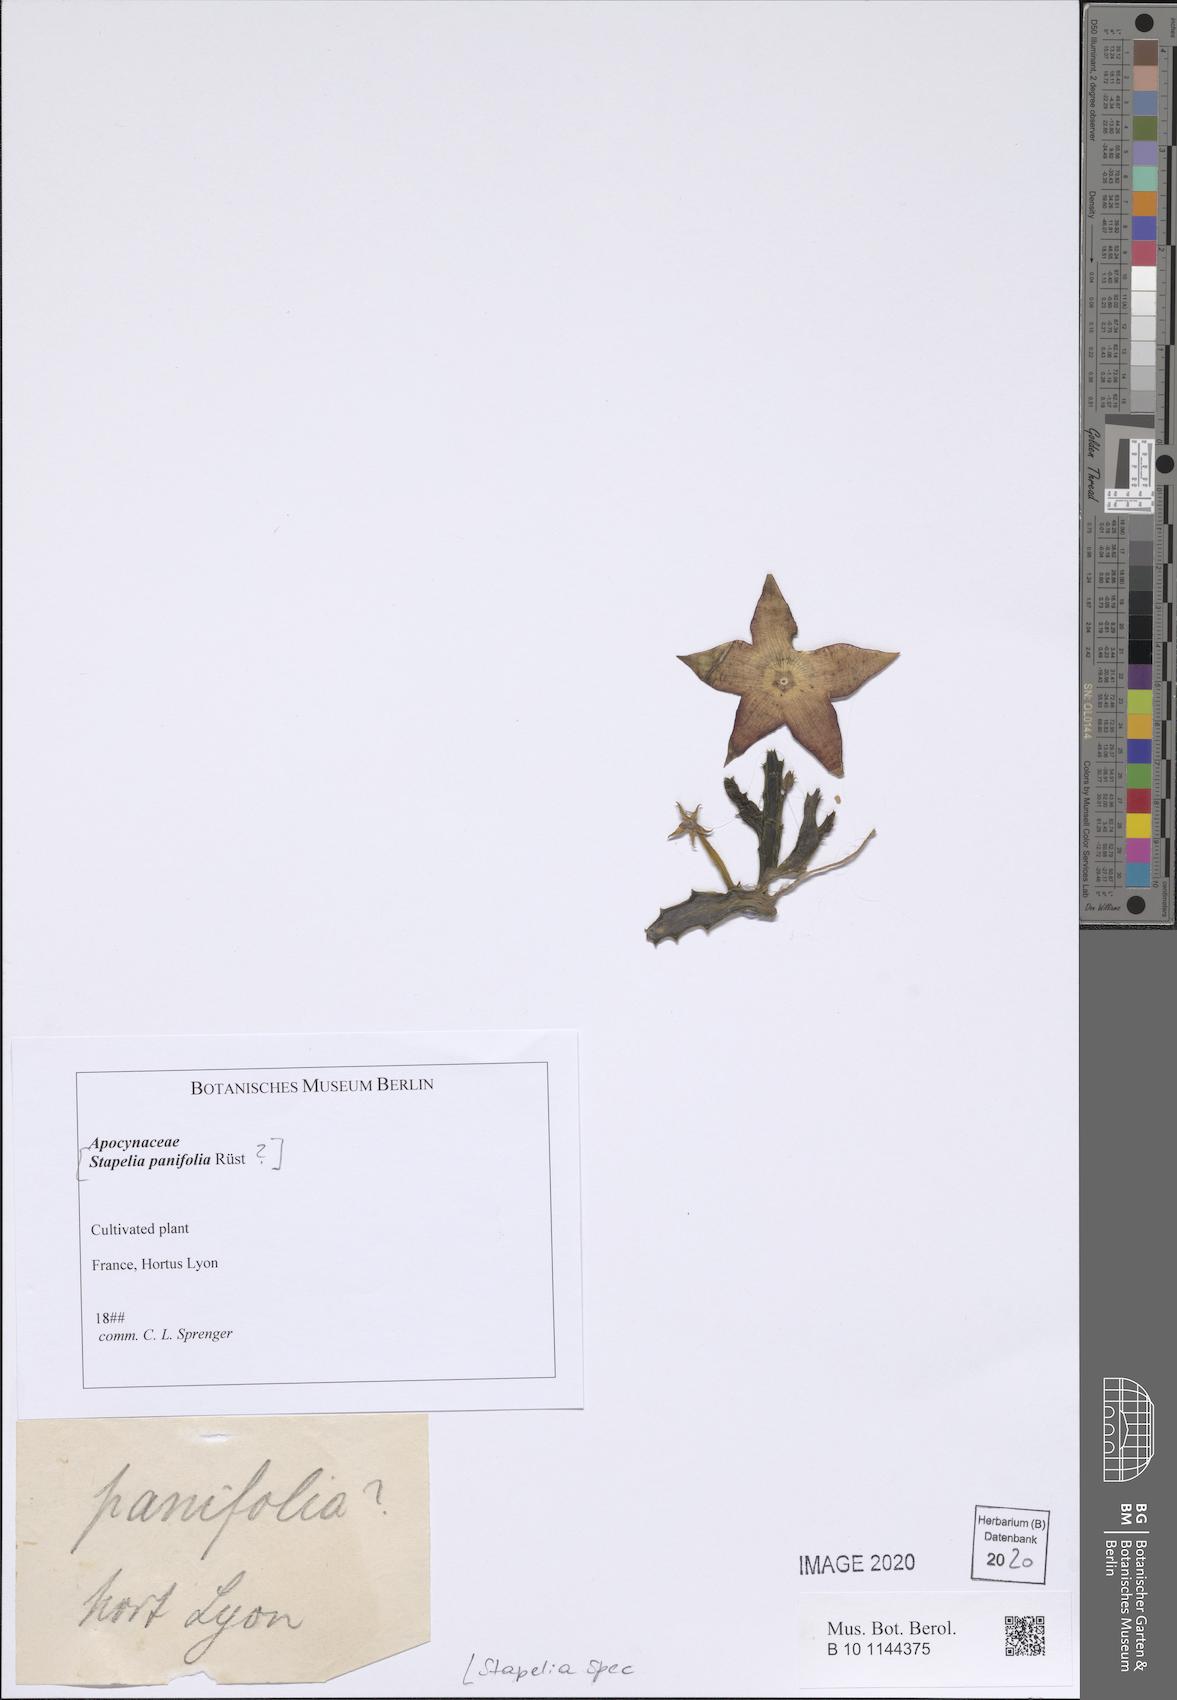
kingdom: Plantae
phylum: Tracheophyta
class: Magnoliopsida
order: Gentianales
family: Apocynaceae
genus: Stapelia
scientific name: Stapelia
